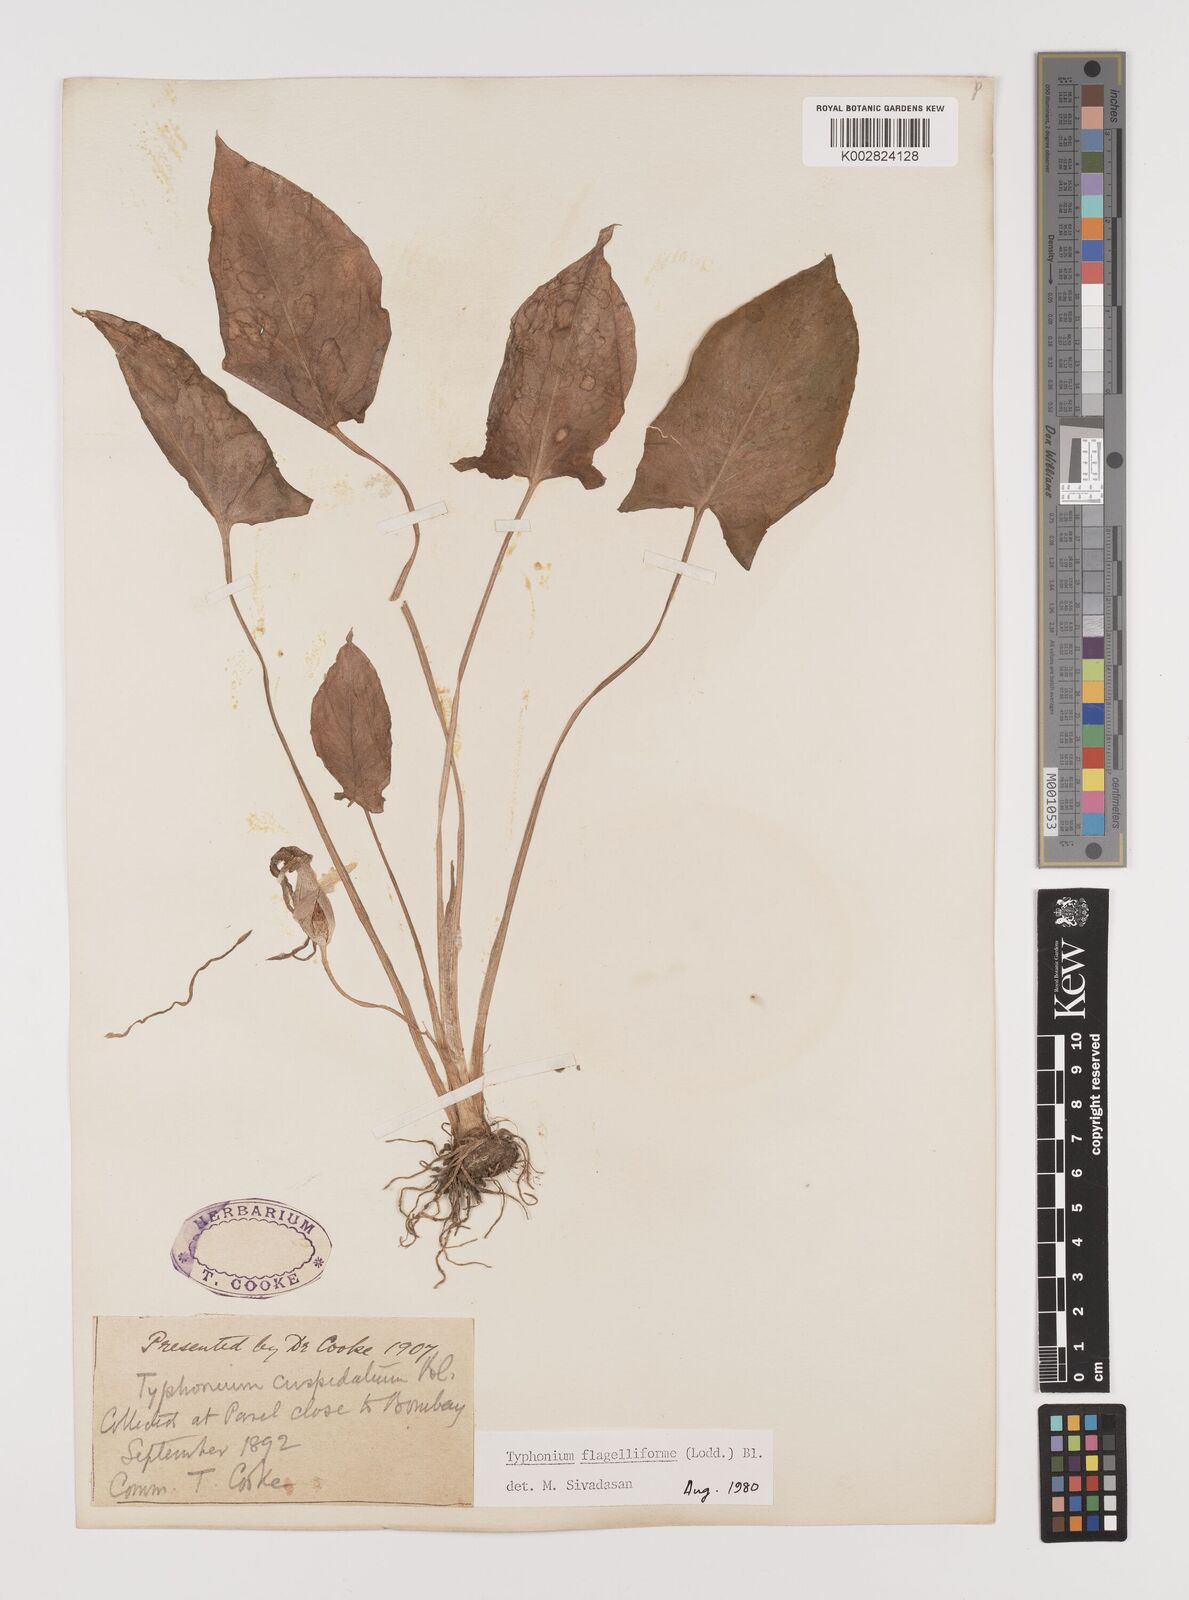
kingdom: Plantae
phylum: Tracheophyta
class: Liliopsida
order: Alismatales
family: Araceae
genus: Typhonium
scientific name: Typhonium flagelliforme
